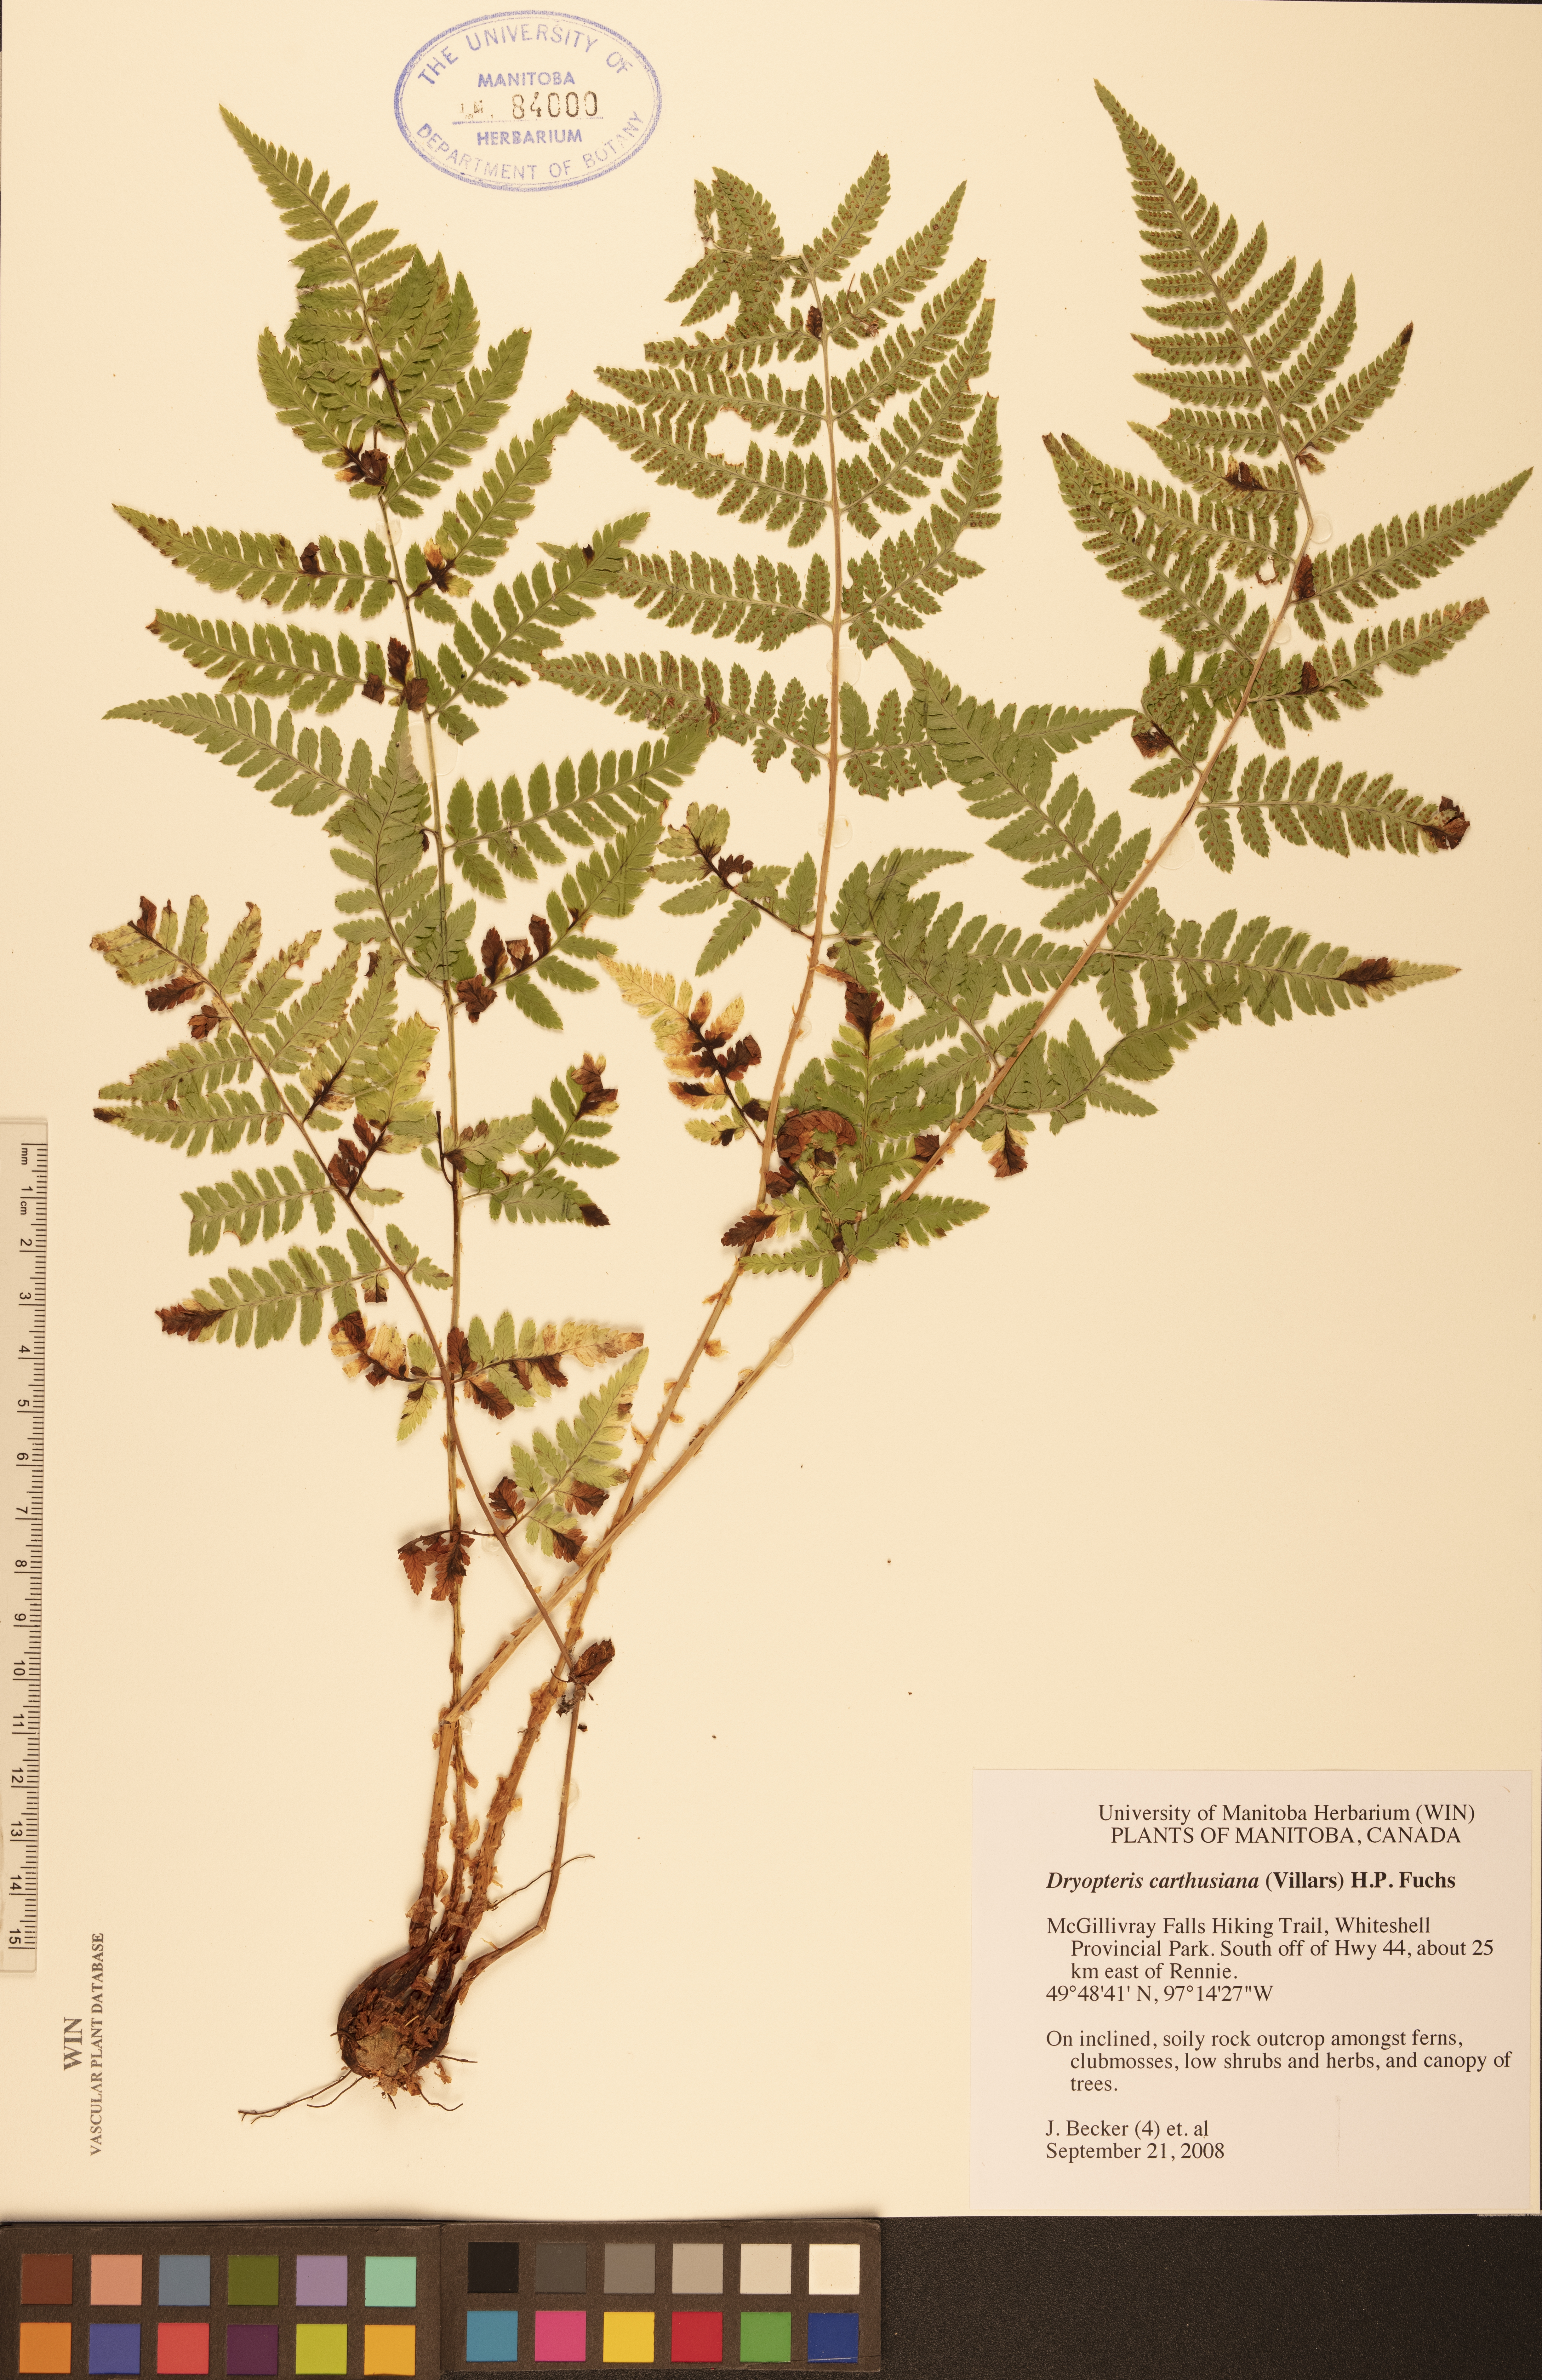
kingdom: Plantae
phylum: Tracheophyta
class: Polypodiopsida
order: Polypodiales
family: Dryopteridaceae
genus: Dryopteris
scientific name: Dryopteris carthusiana
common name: Narrow buckler-fern
